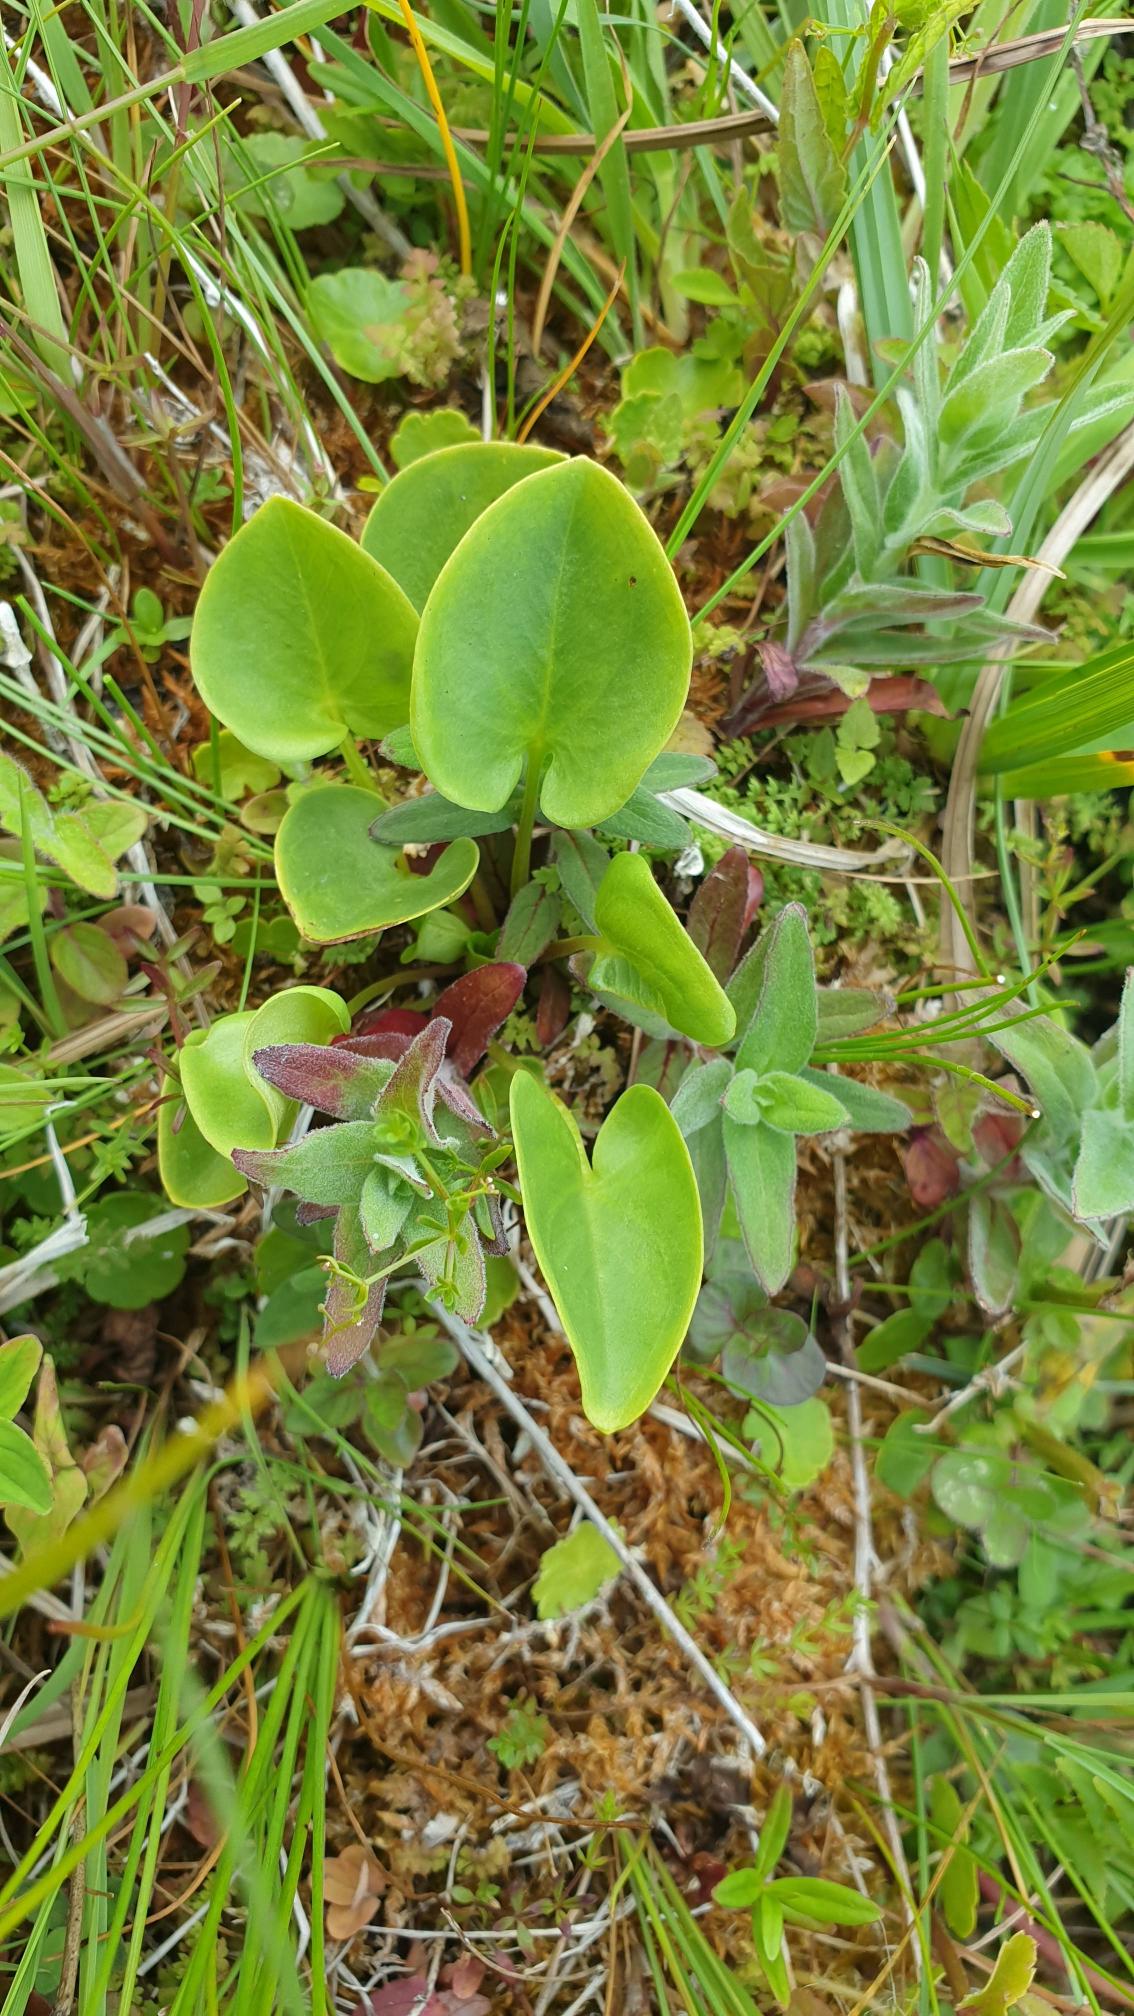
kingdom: Plantae
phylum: Tracheophyta
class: Magnoliopsida
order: Celastrales
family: Parnassiaceae
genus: Parnassia
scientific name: Parnassia palustris
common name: Leverurt
